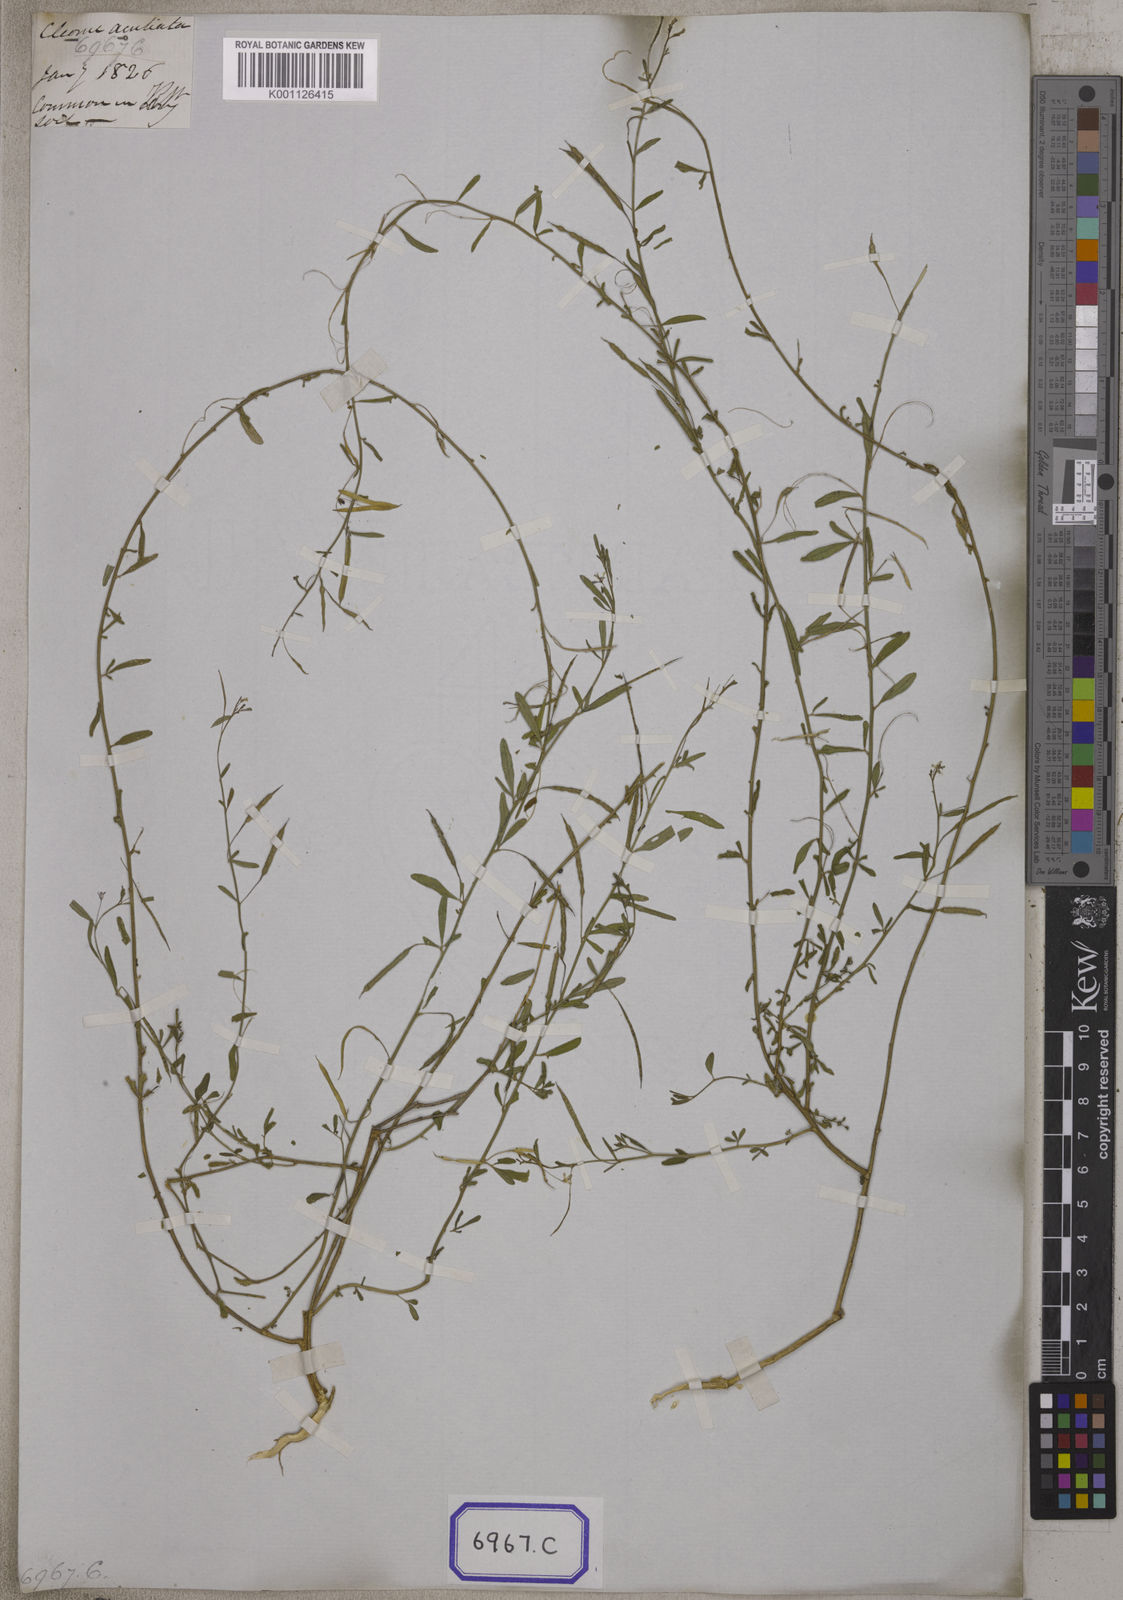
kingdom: Plantae
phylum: Tracheophyta
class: Magnoliopsida
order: Brassicales
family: Cleomaceae
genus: Cleome
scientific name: Cleome
